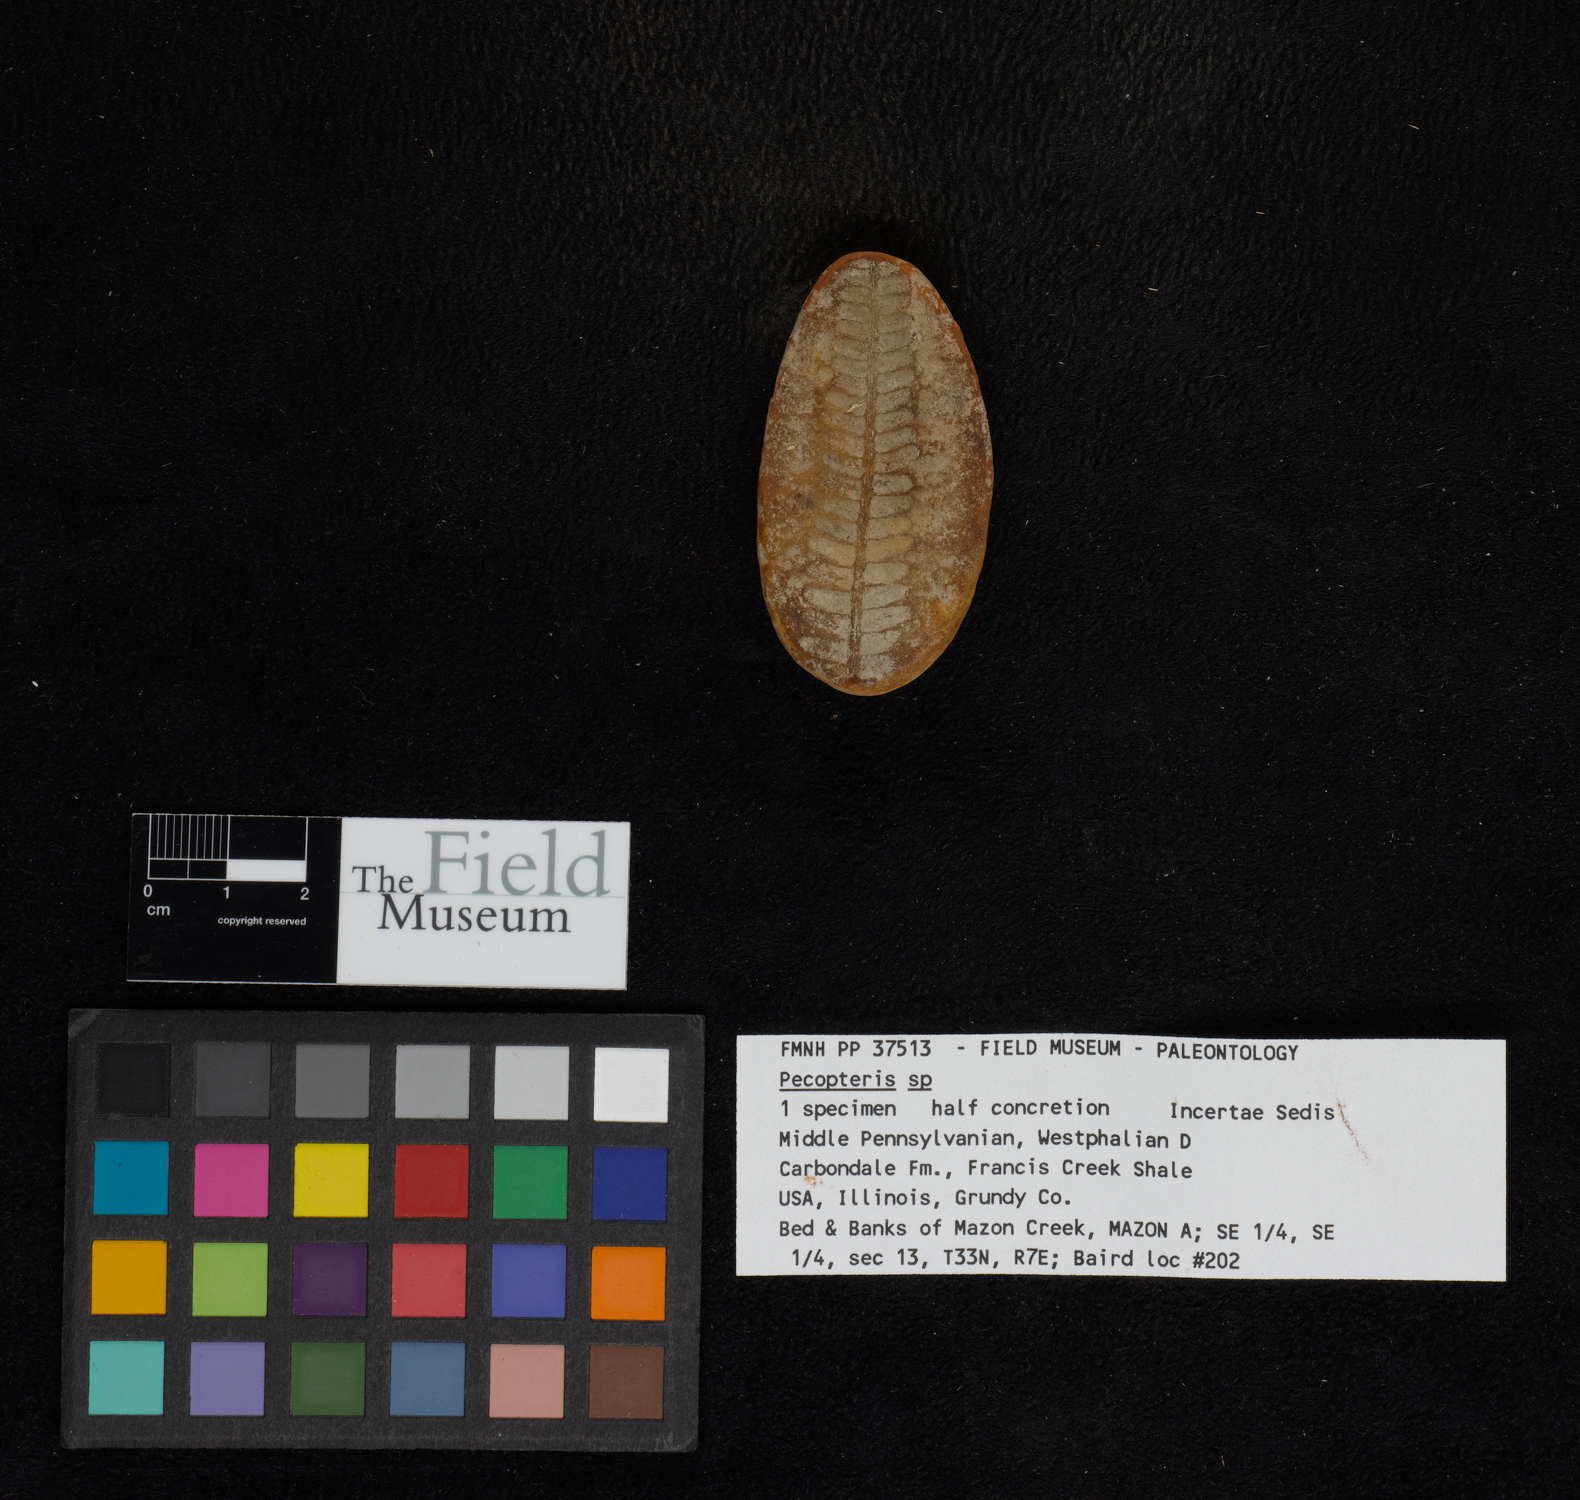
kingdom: Plantae
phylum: Tracheophyta
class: Polypodiopsida
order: Marattiales
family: Asterothecaceae
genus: Pecopteris
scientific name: Pecopteris
